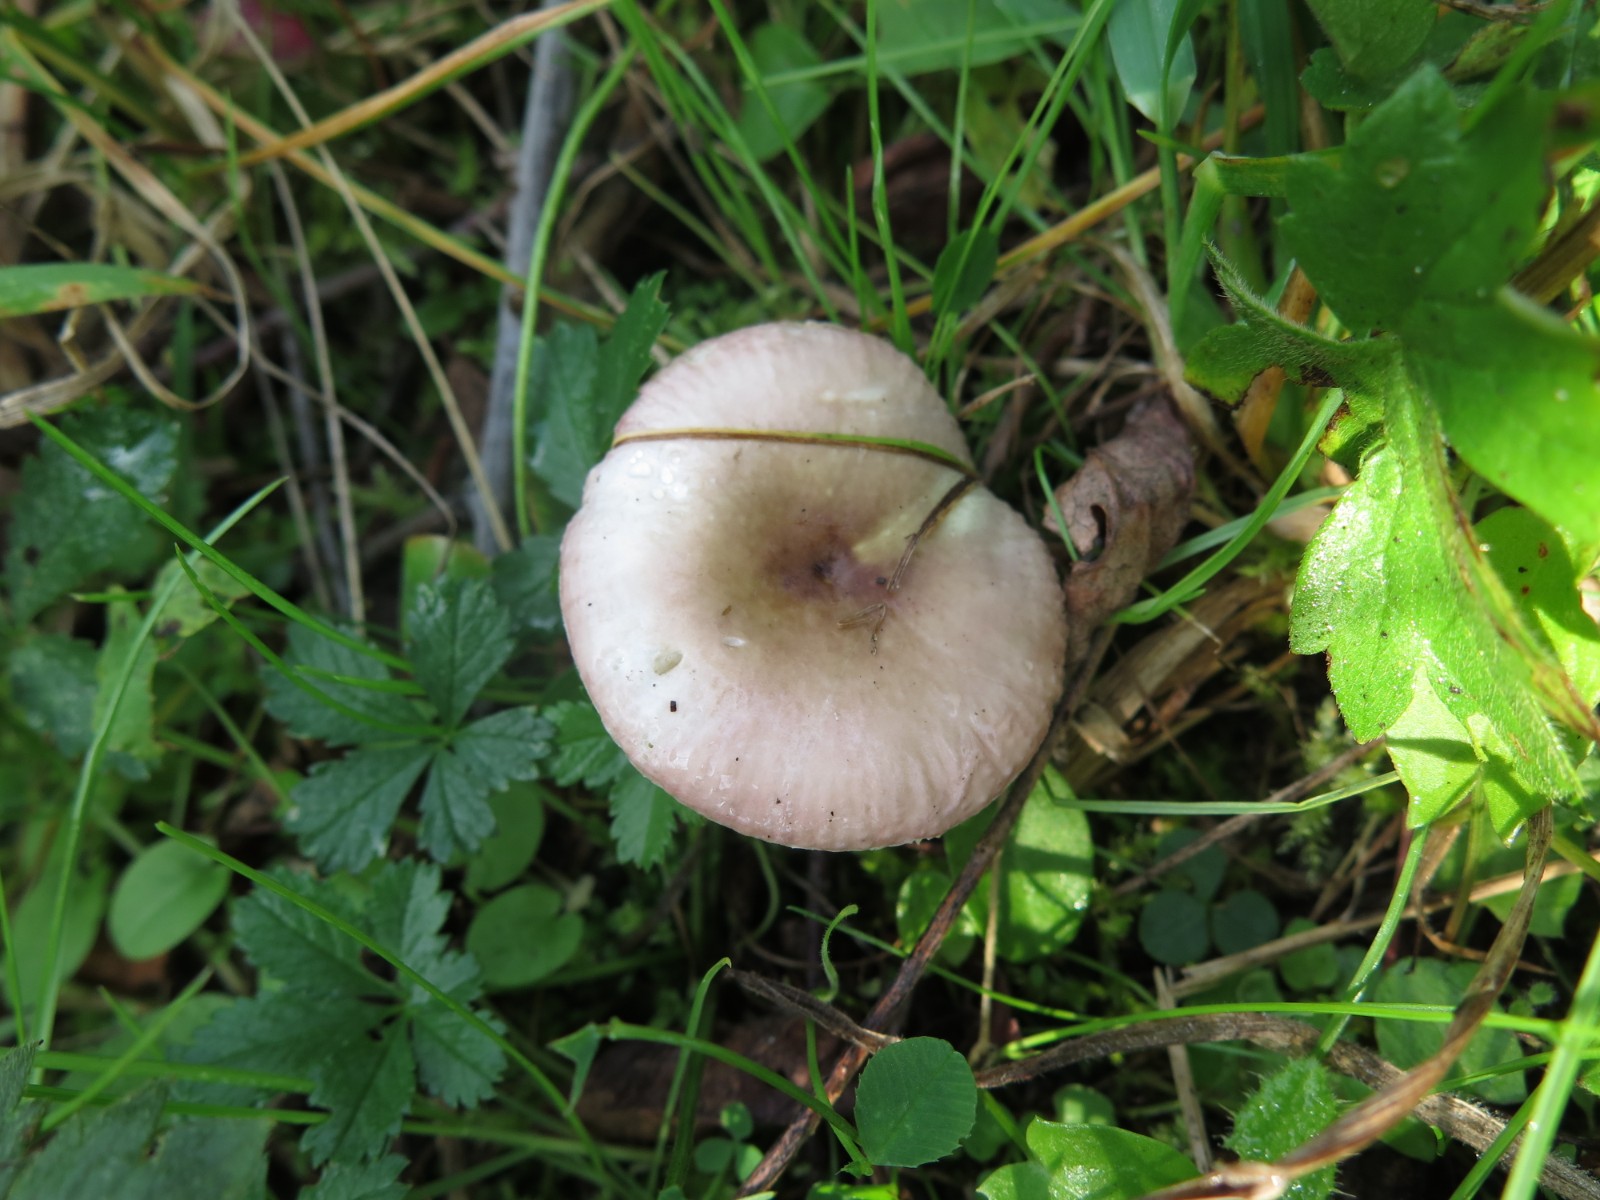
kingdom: Fungi
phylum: Basidiomycota
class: Agaricomycetes
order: Russulales
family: Russulaceae
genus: Russula
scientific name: Russula nitida
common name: året skørhat
